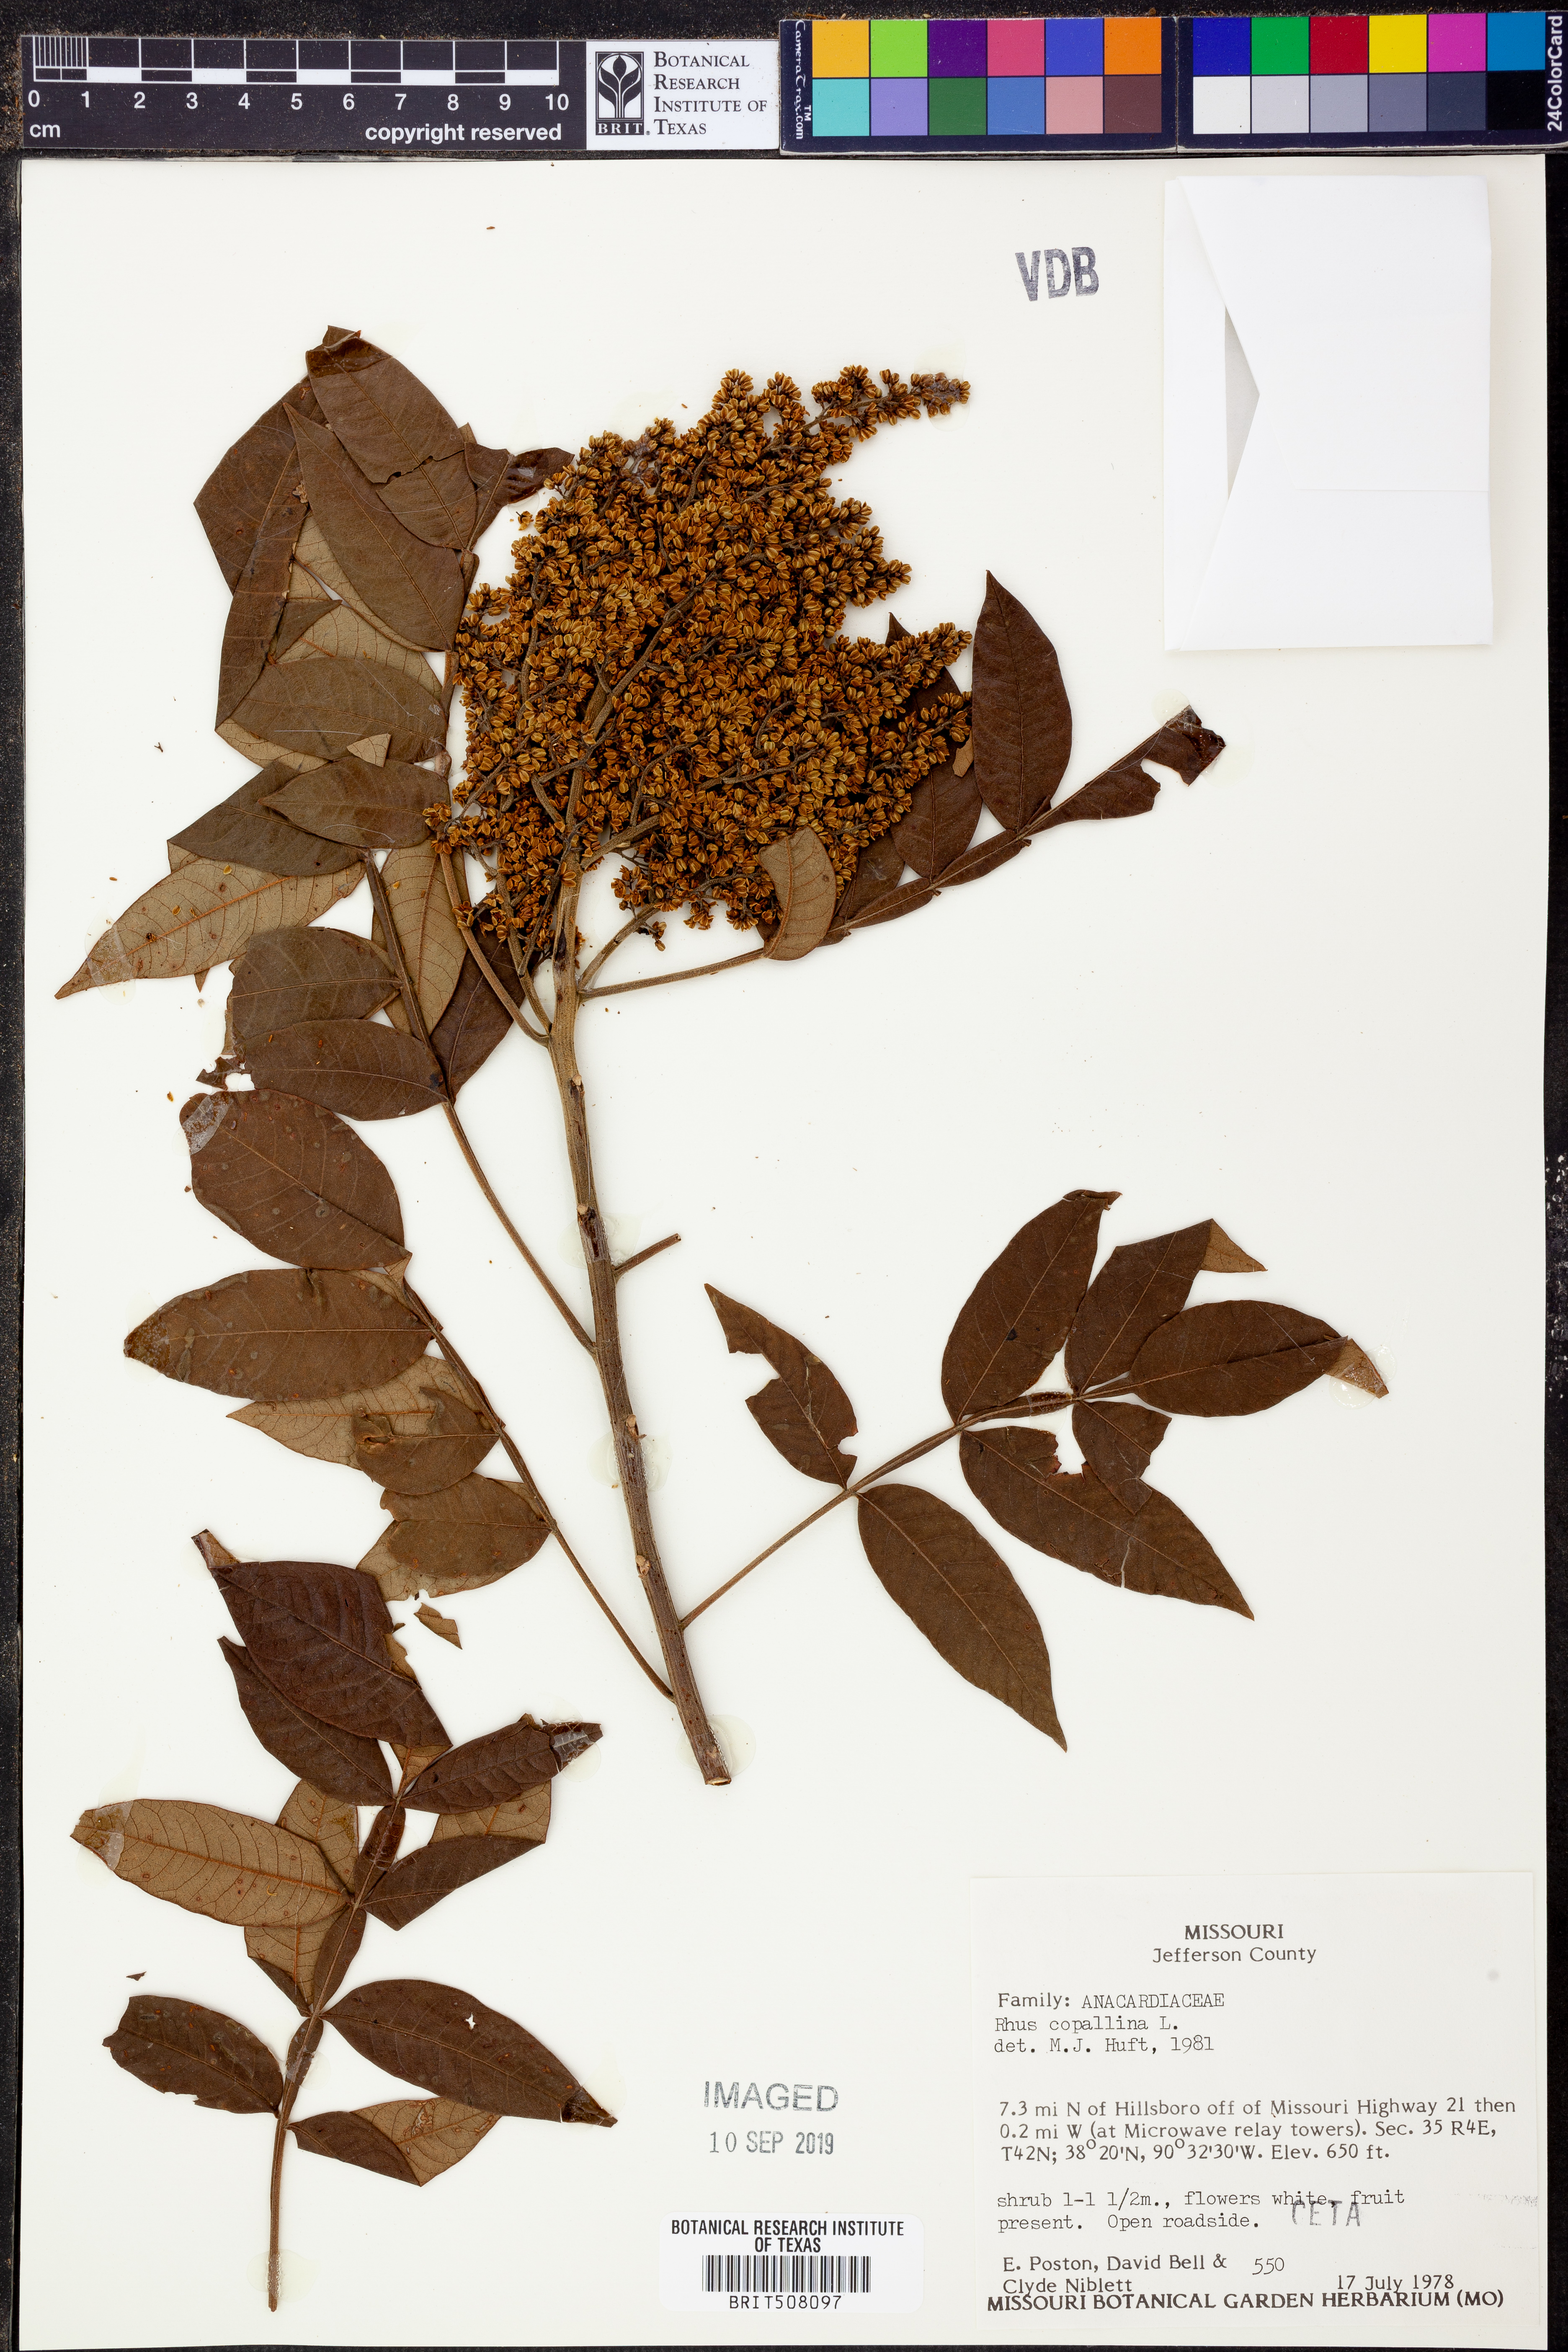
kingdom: Plantae
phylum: Tracheophyta
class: Magnoliopsida
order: Sapindales
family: Anacardiaceae
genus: Rhus
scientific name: Rhus copallina
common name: Shining sumac
